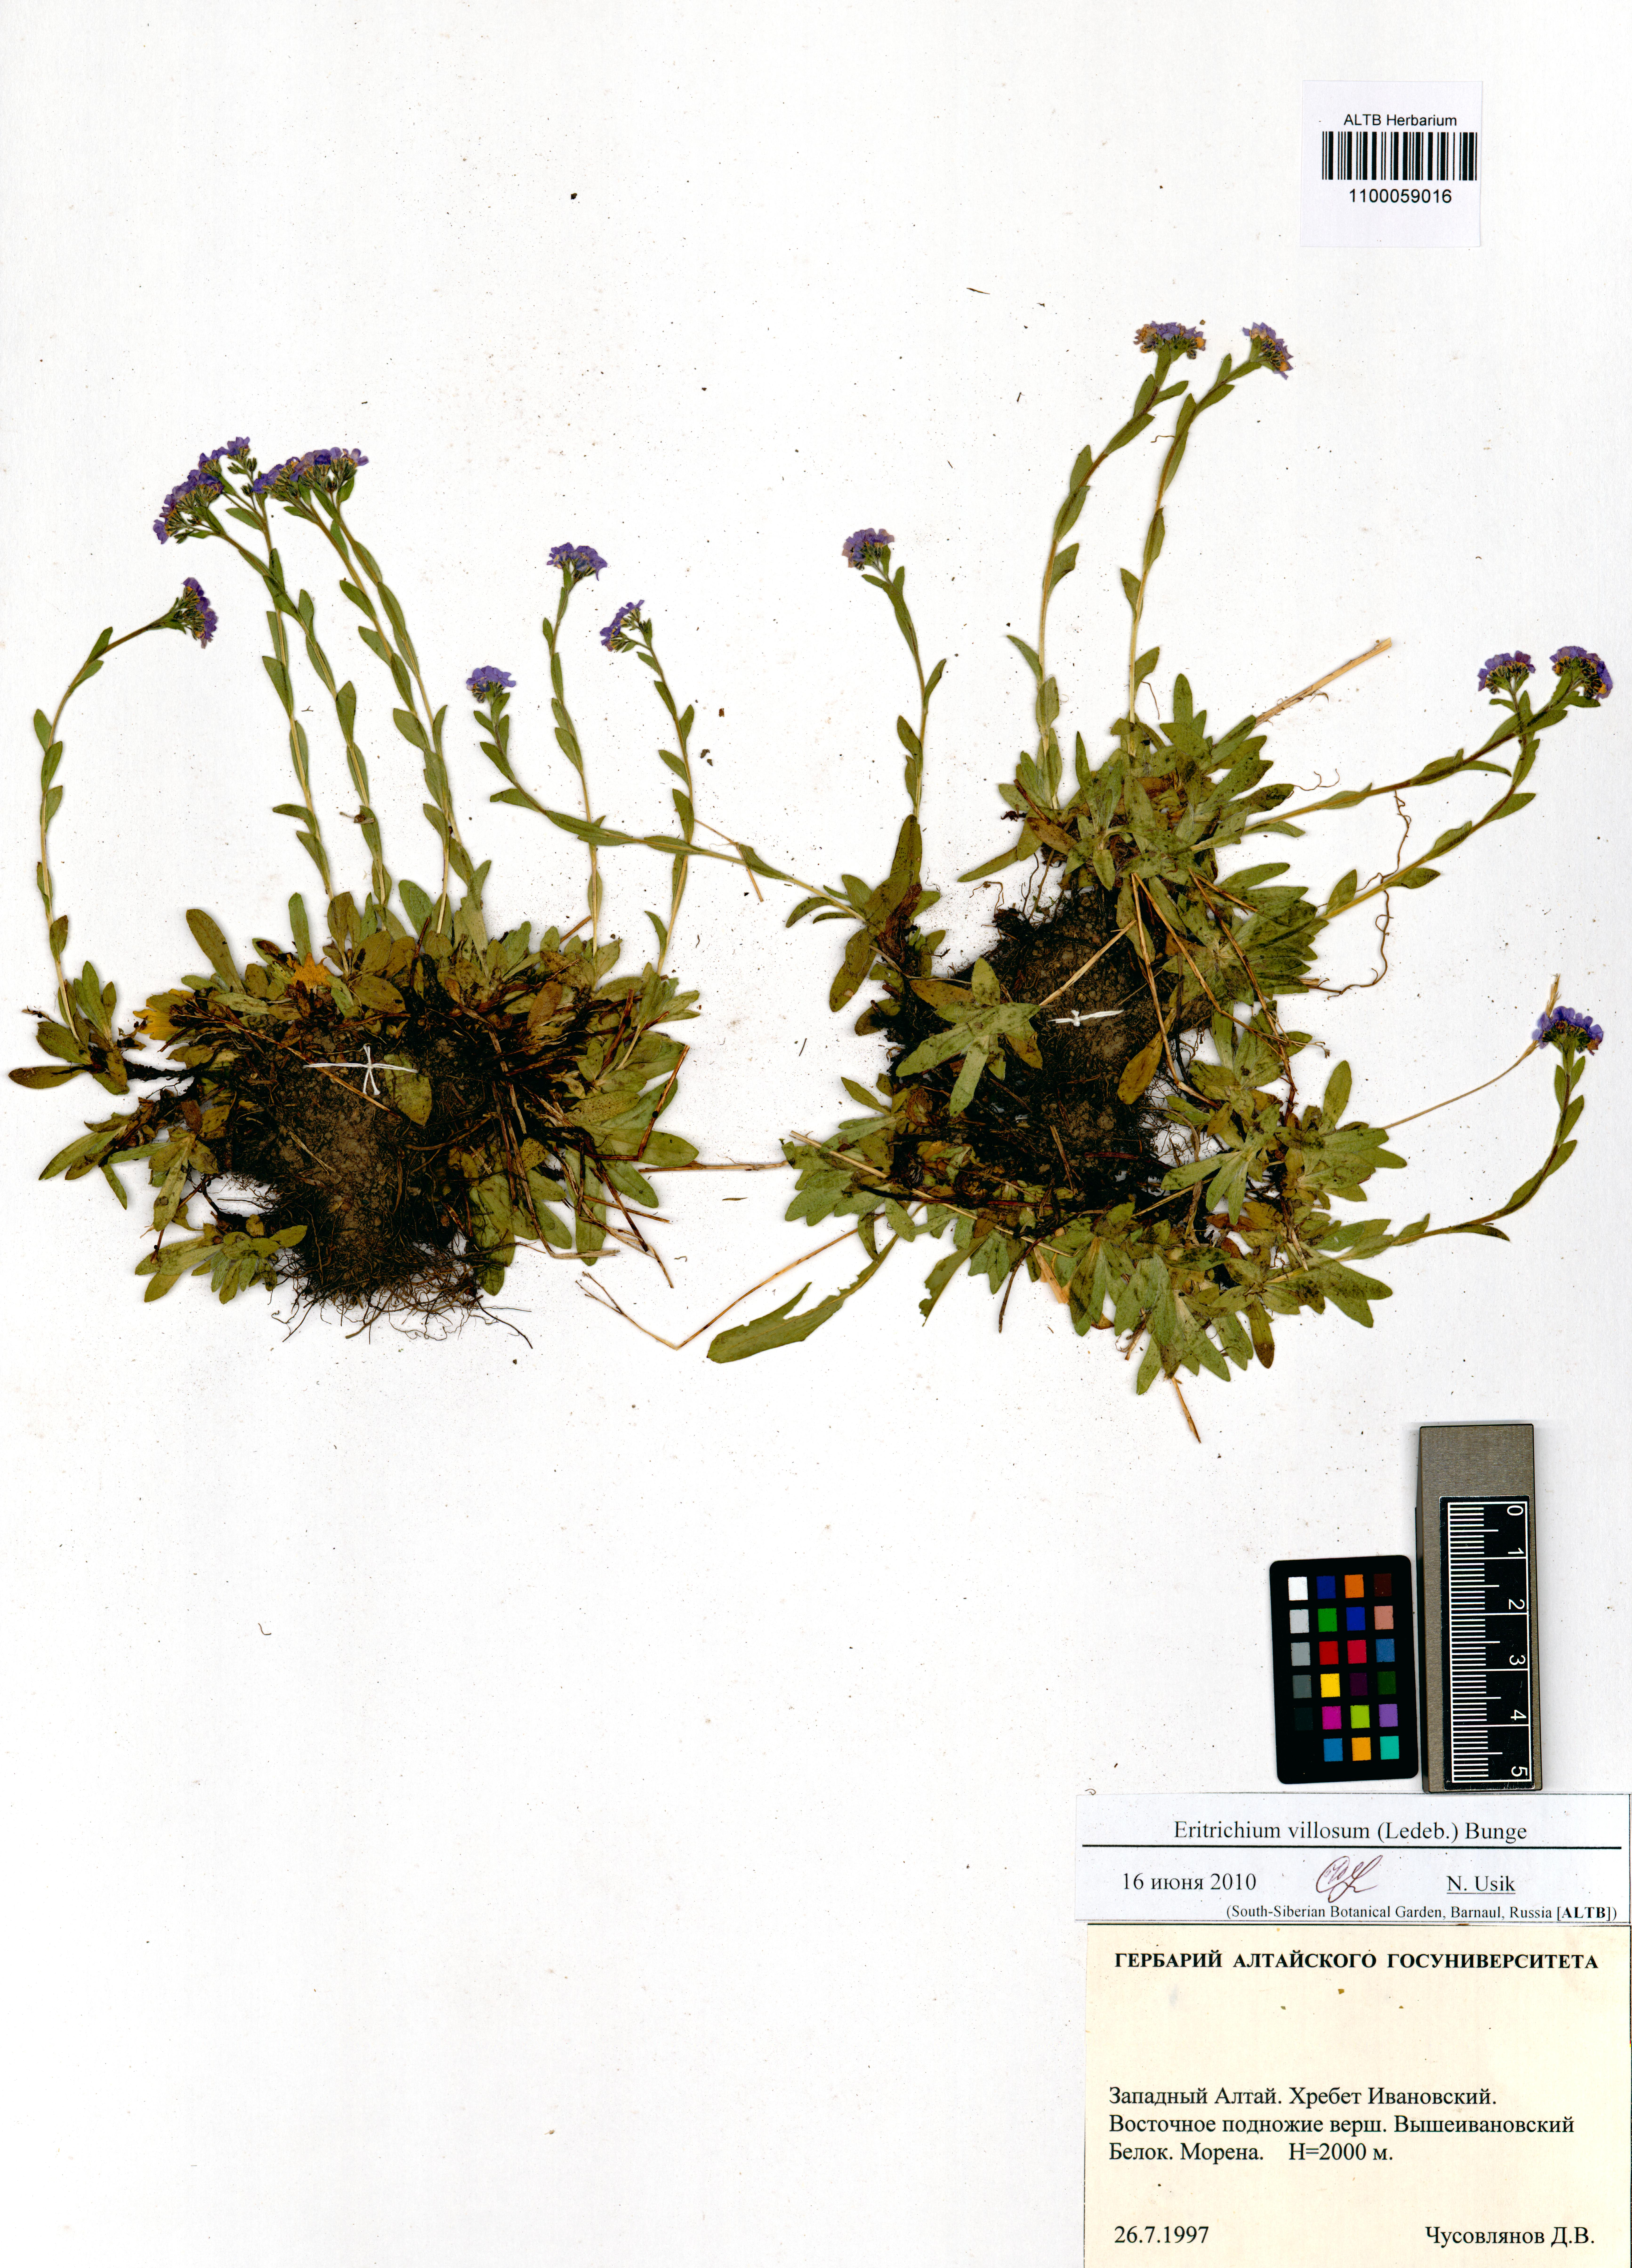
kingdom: Plantae
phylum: Tracheophyta
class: Magnoliopsida
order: Boraginales
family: Boraginaceae
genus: Eritrichium
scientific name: Eritrichium villosum
